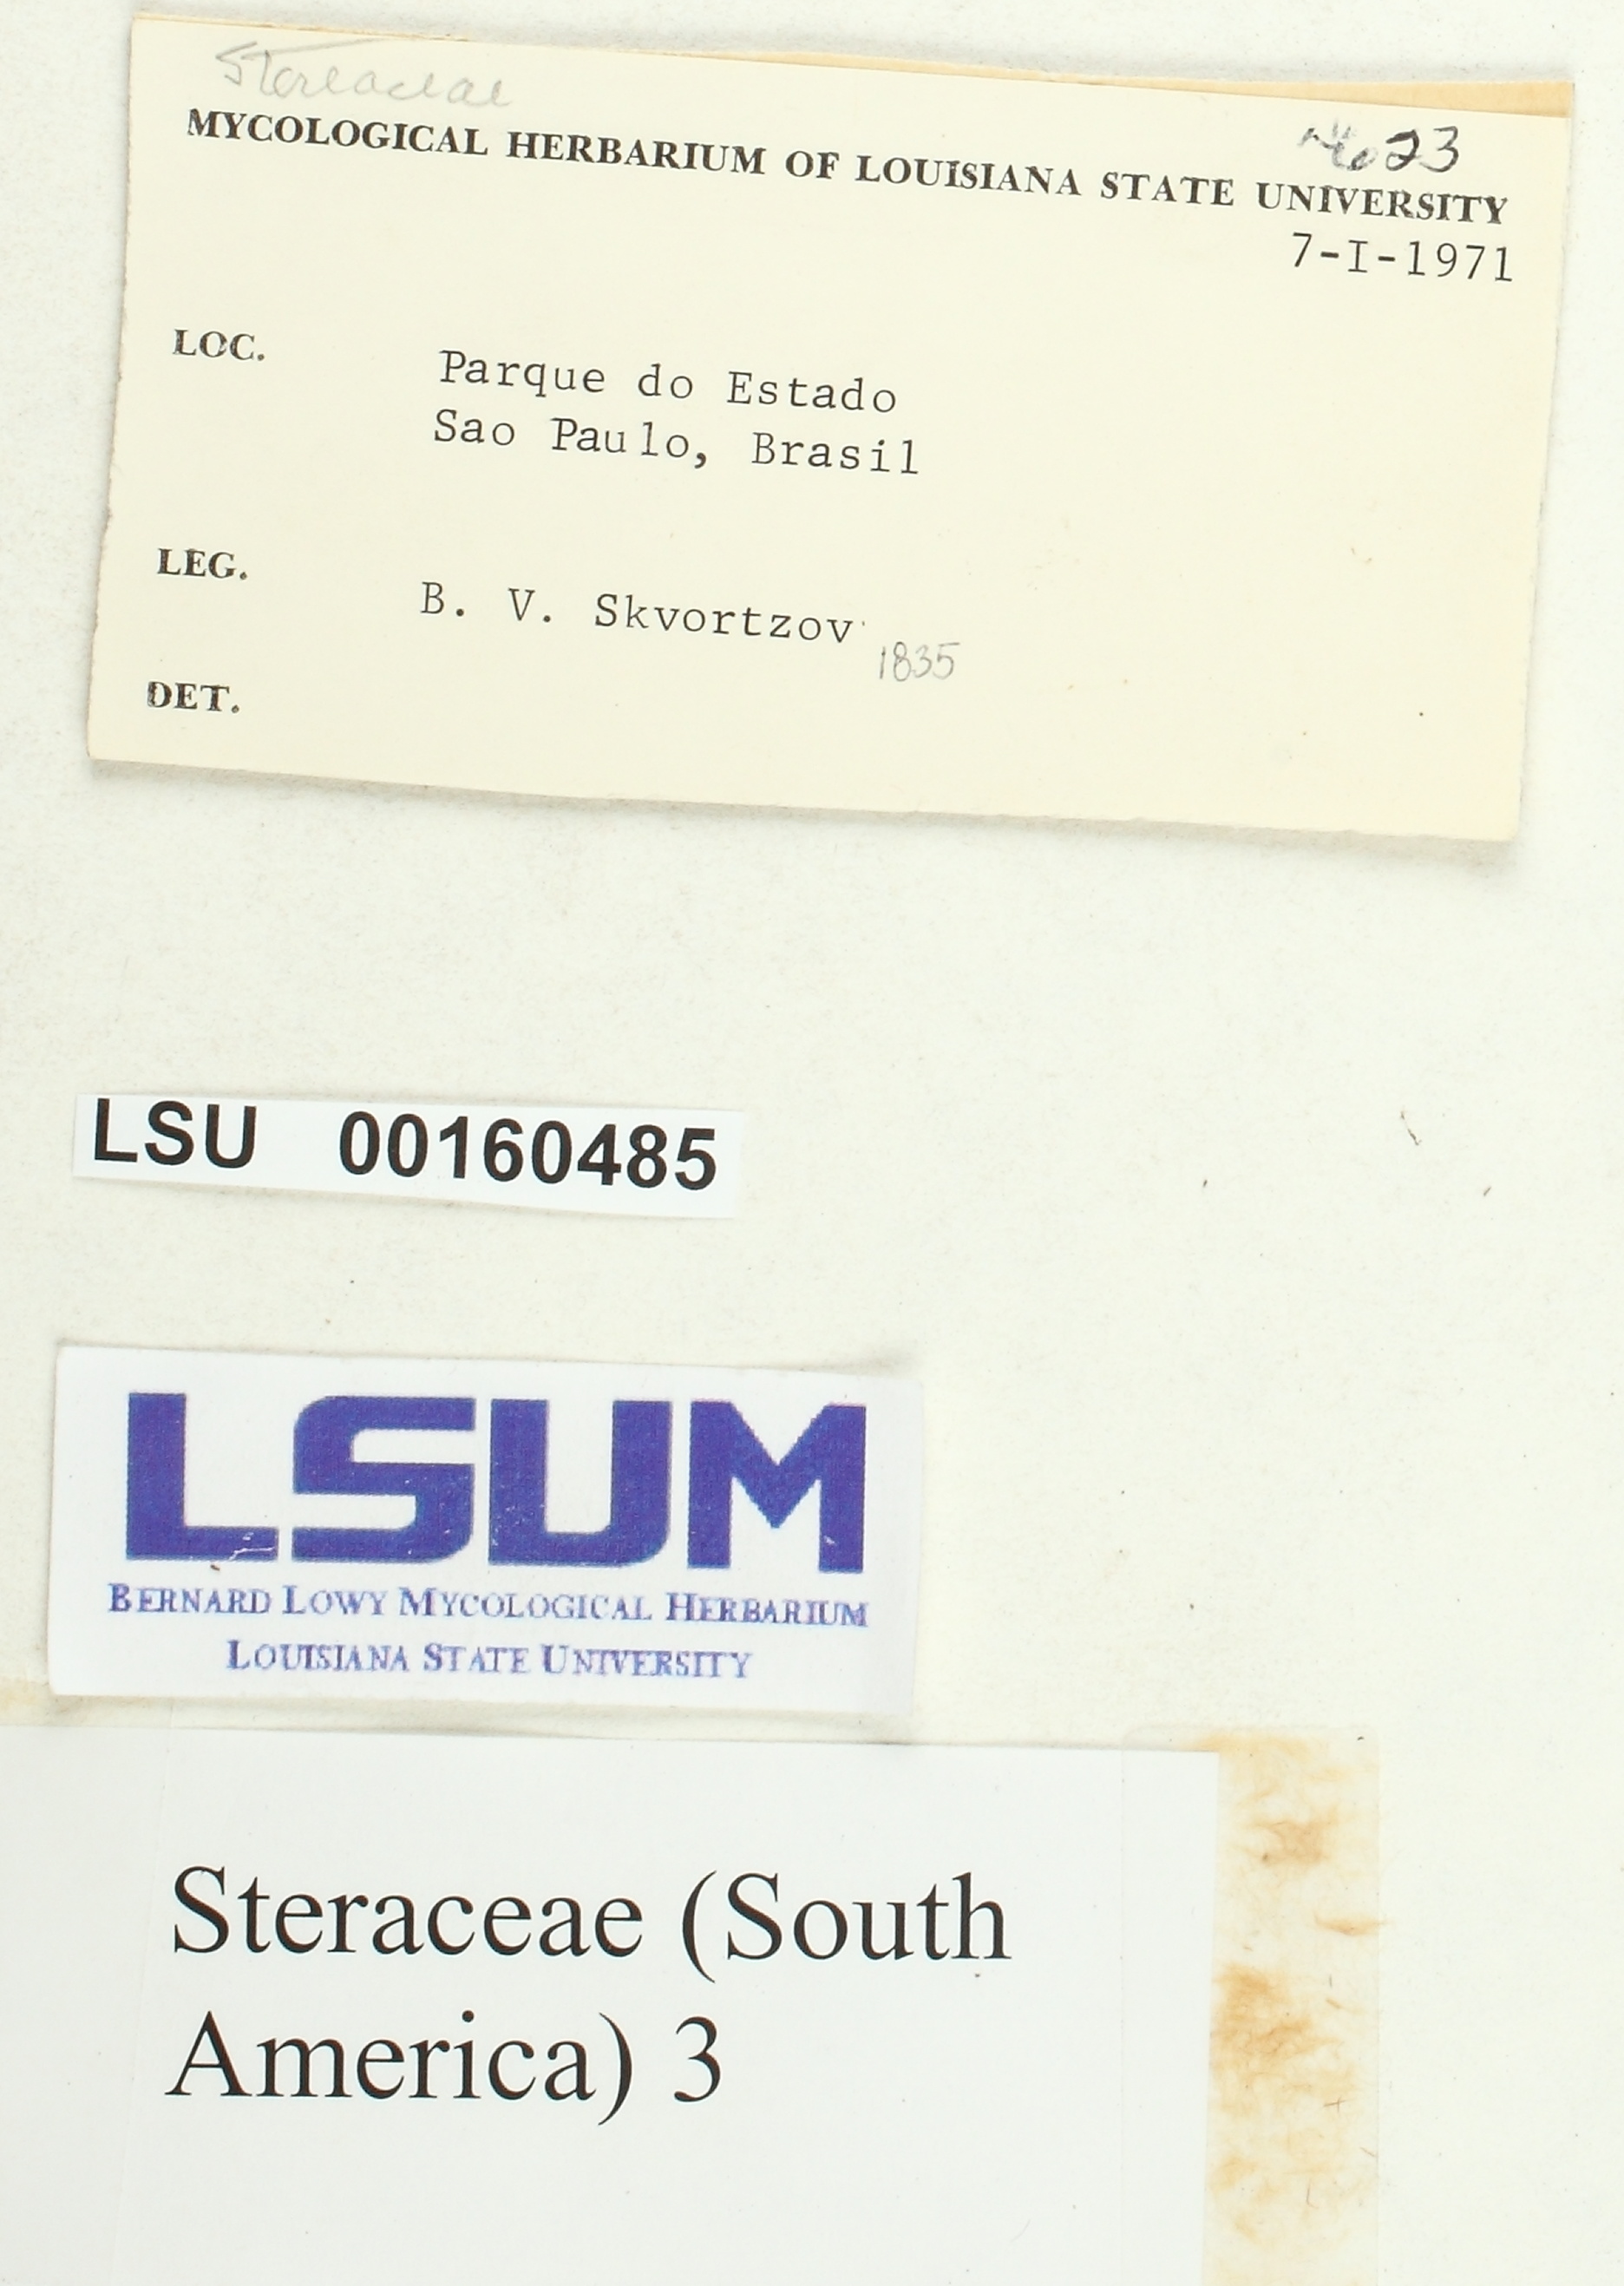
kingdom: Fungi
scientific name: Fungi
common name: Fungi
